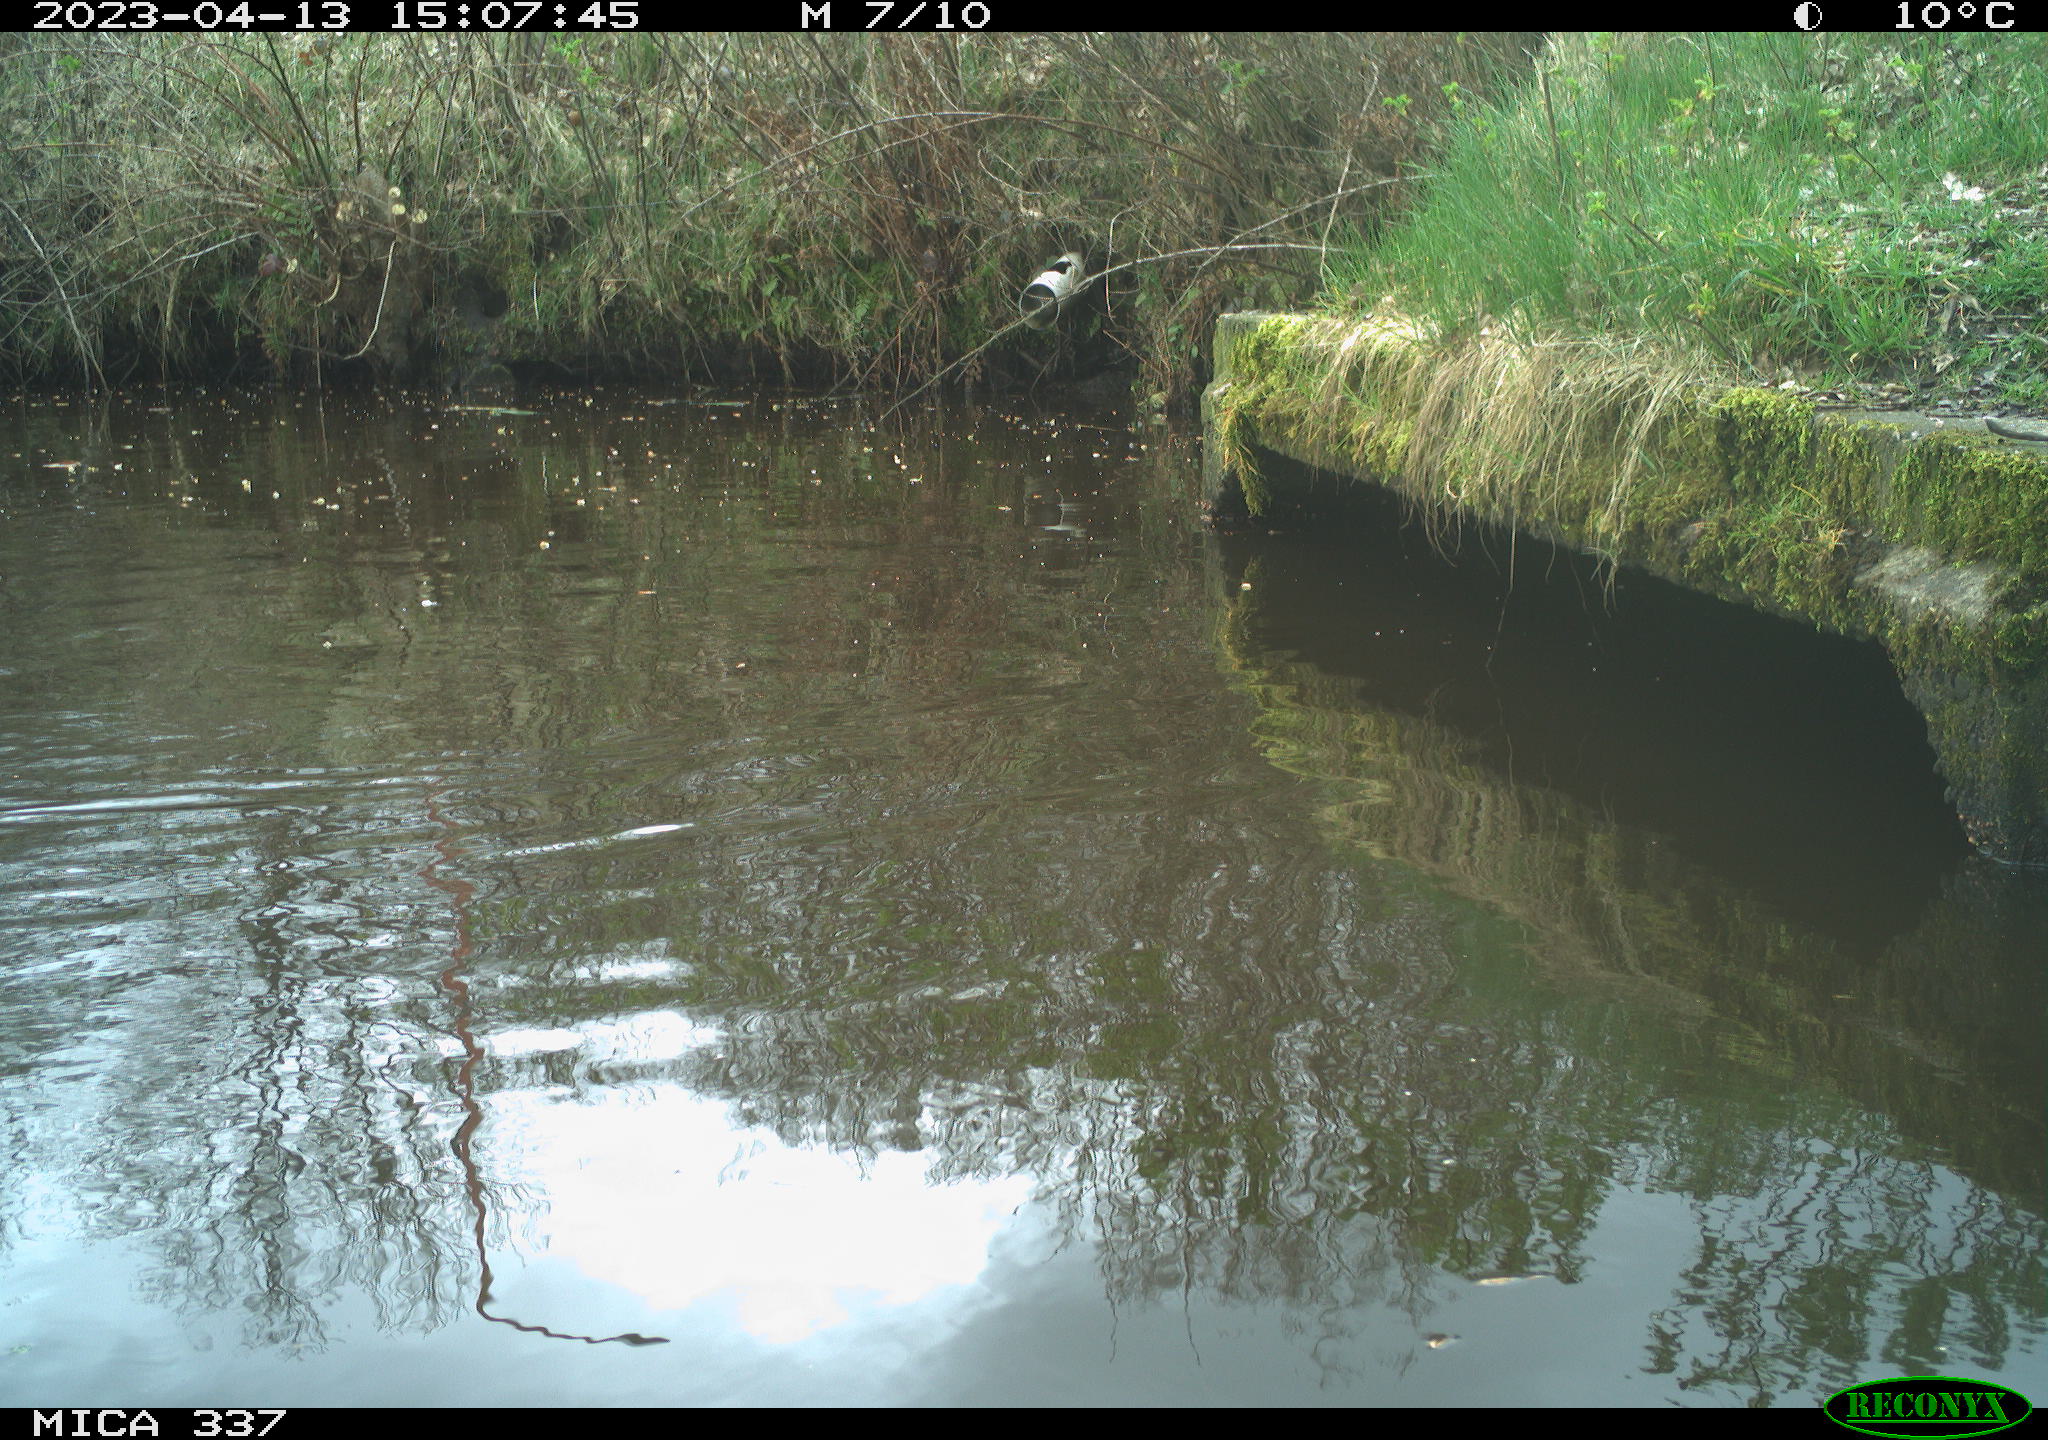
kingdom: Animalia
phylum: Chordata
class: Aves
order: Anseriformes
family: Anatidae
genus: Anas
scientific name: Anas platyrhynchos
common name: Mallard
